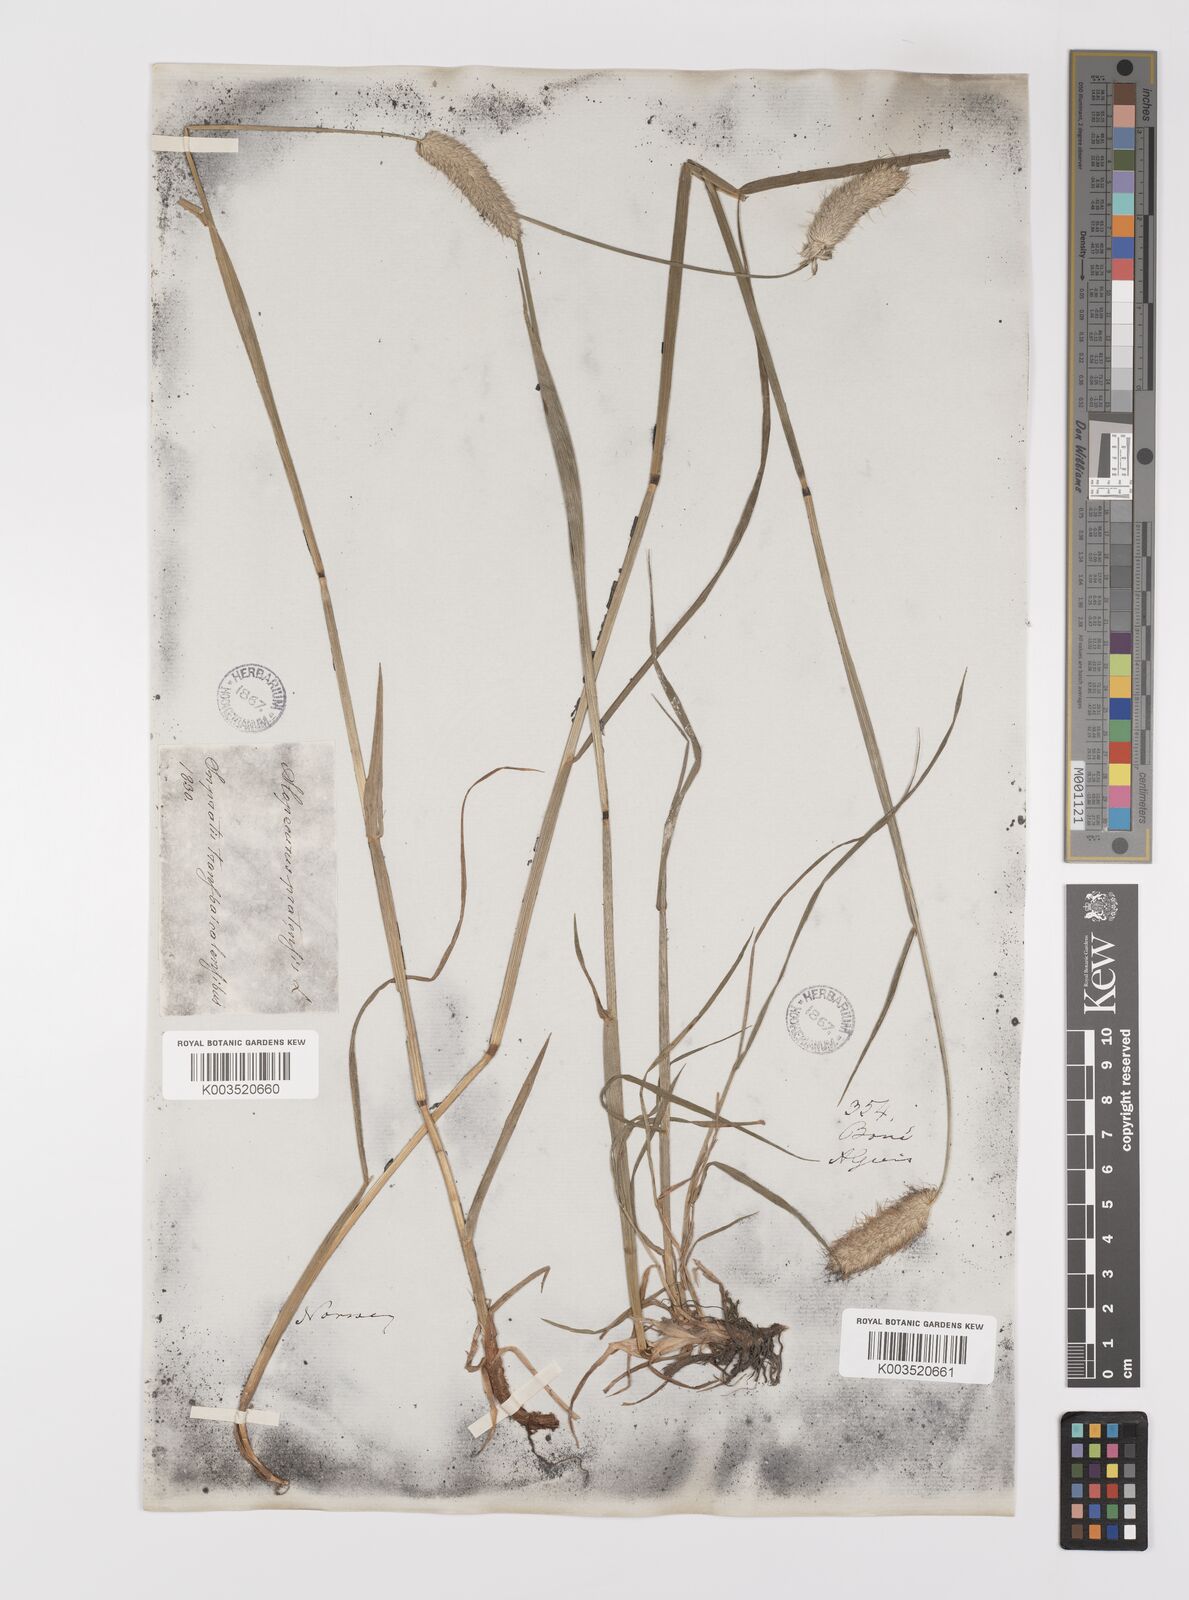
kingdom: Plantae
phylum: Tracheophyta
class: Liliopsida
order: Poales
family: Poaceae
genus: Alopecurus
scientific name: Alopecurus pratensis
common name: Meadow foxtail
